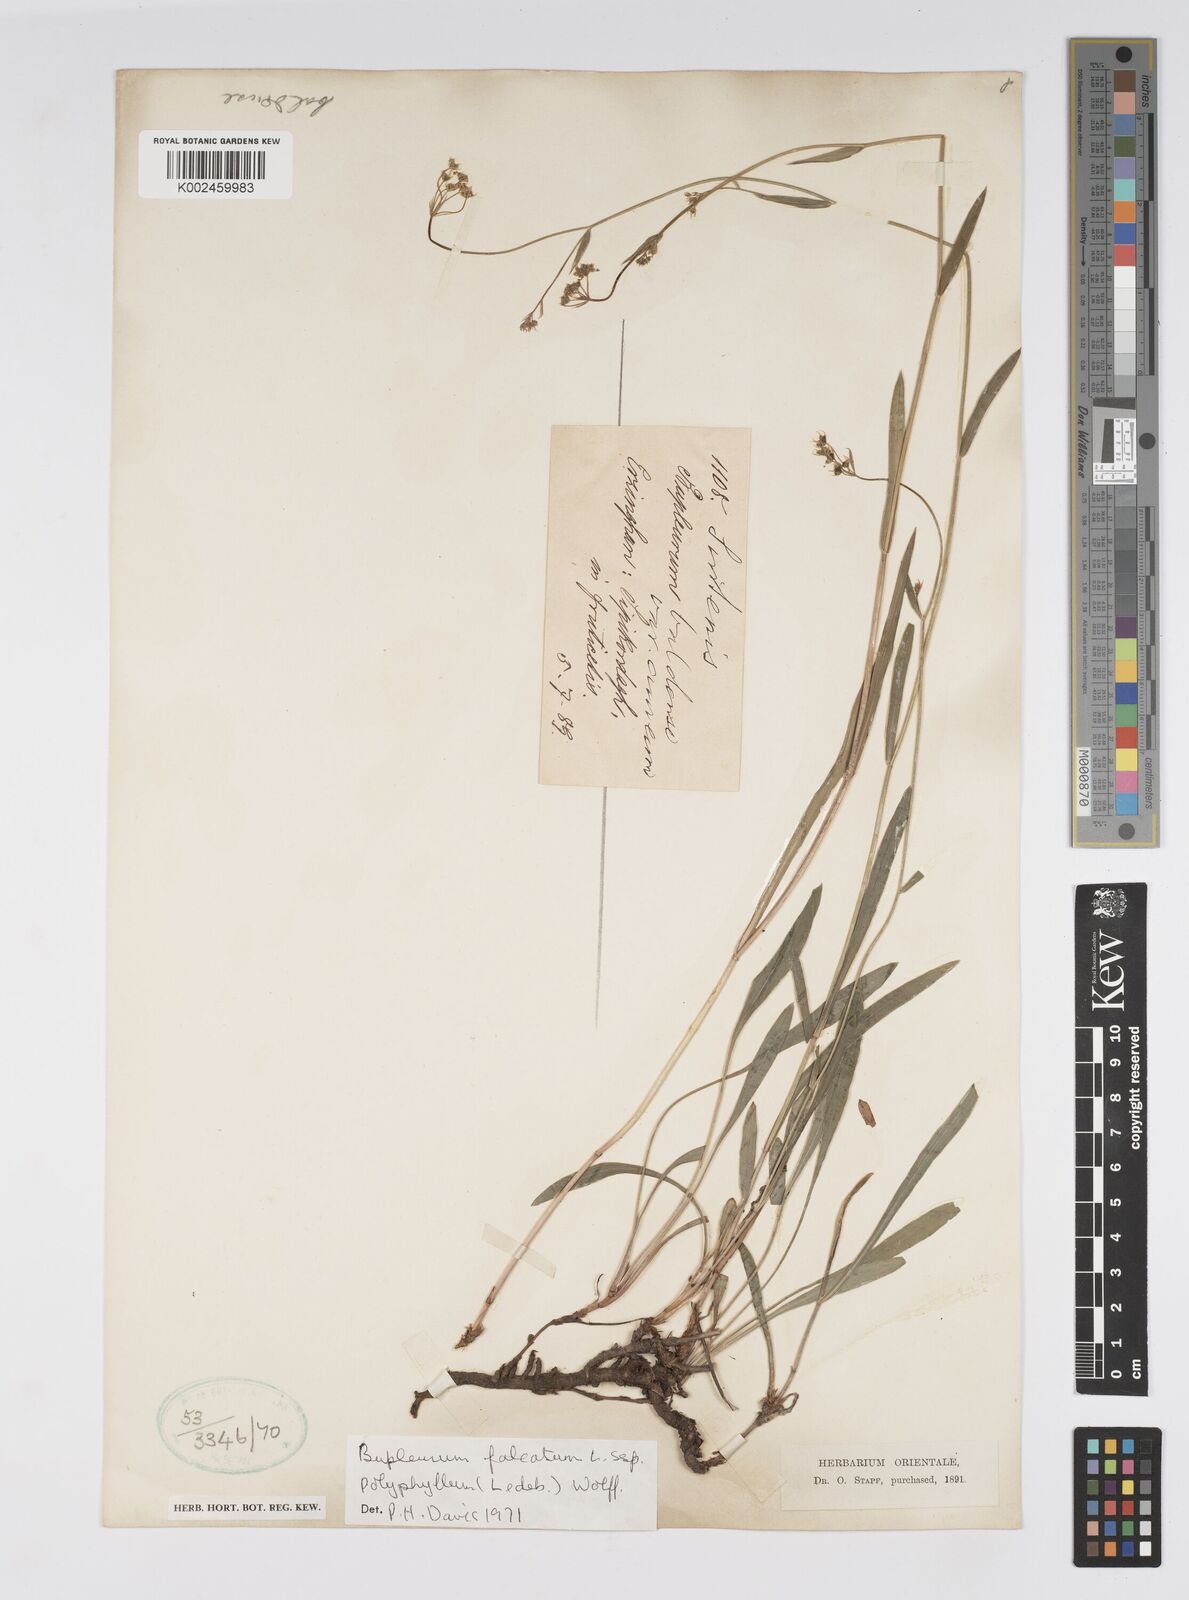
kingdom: Plantae
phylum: Tracheophyta
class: Magnoliopsida
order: Apiales
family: Apiaceae
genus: Bupleurum
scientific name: Bupleurum falcatum
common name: Sickle-leaved hare's-ear
